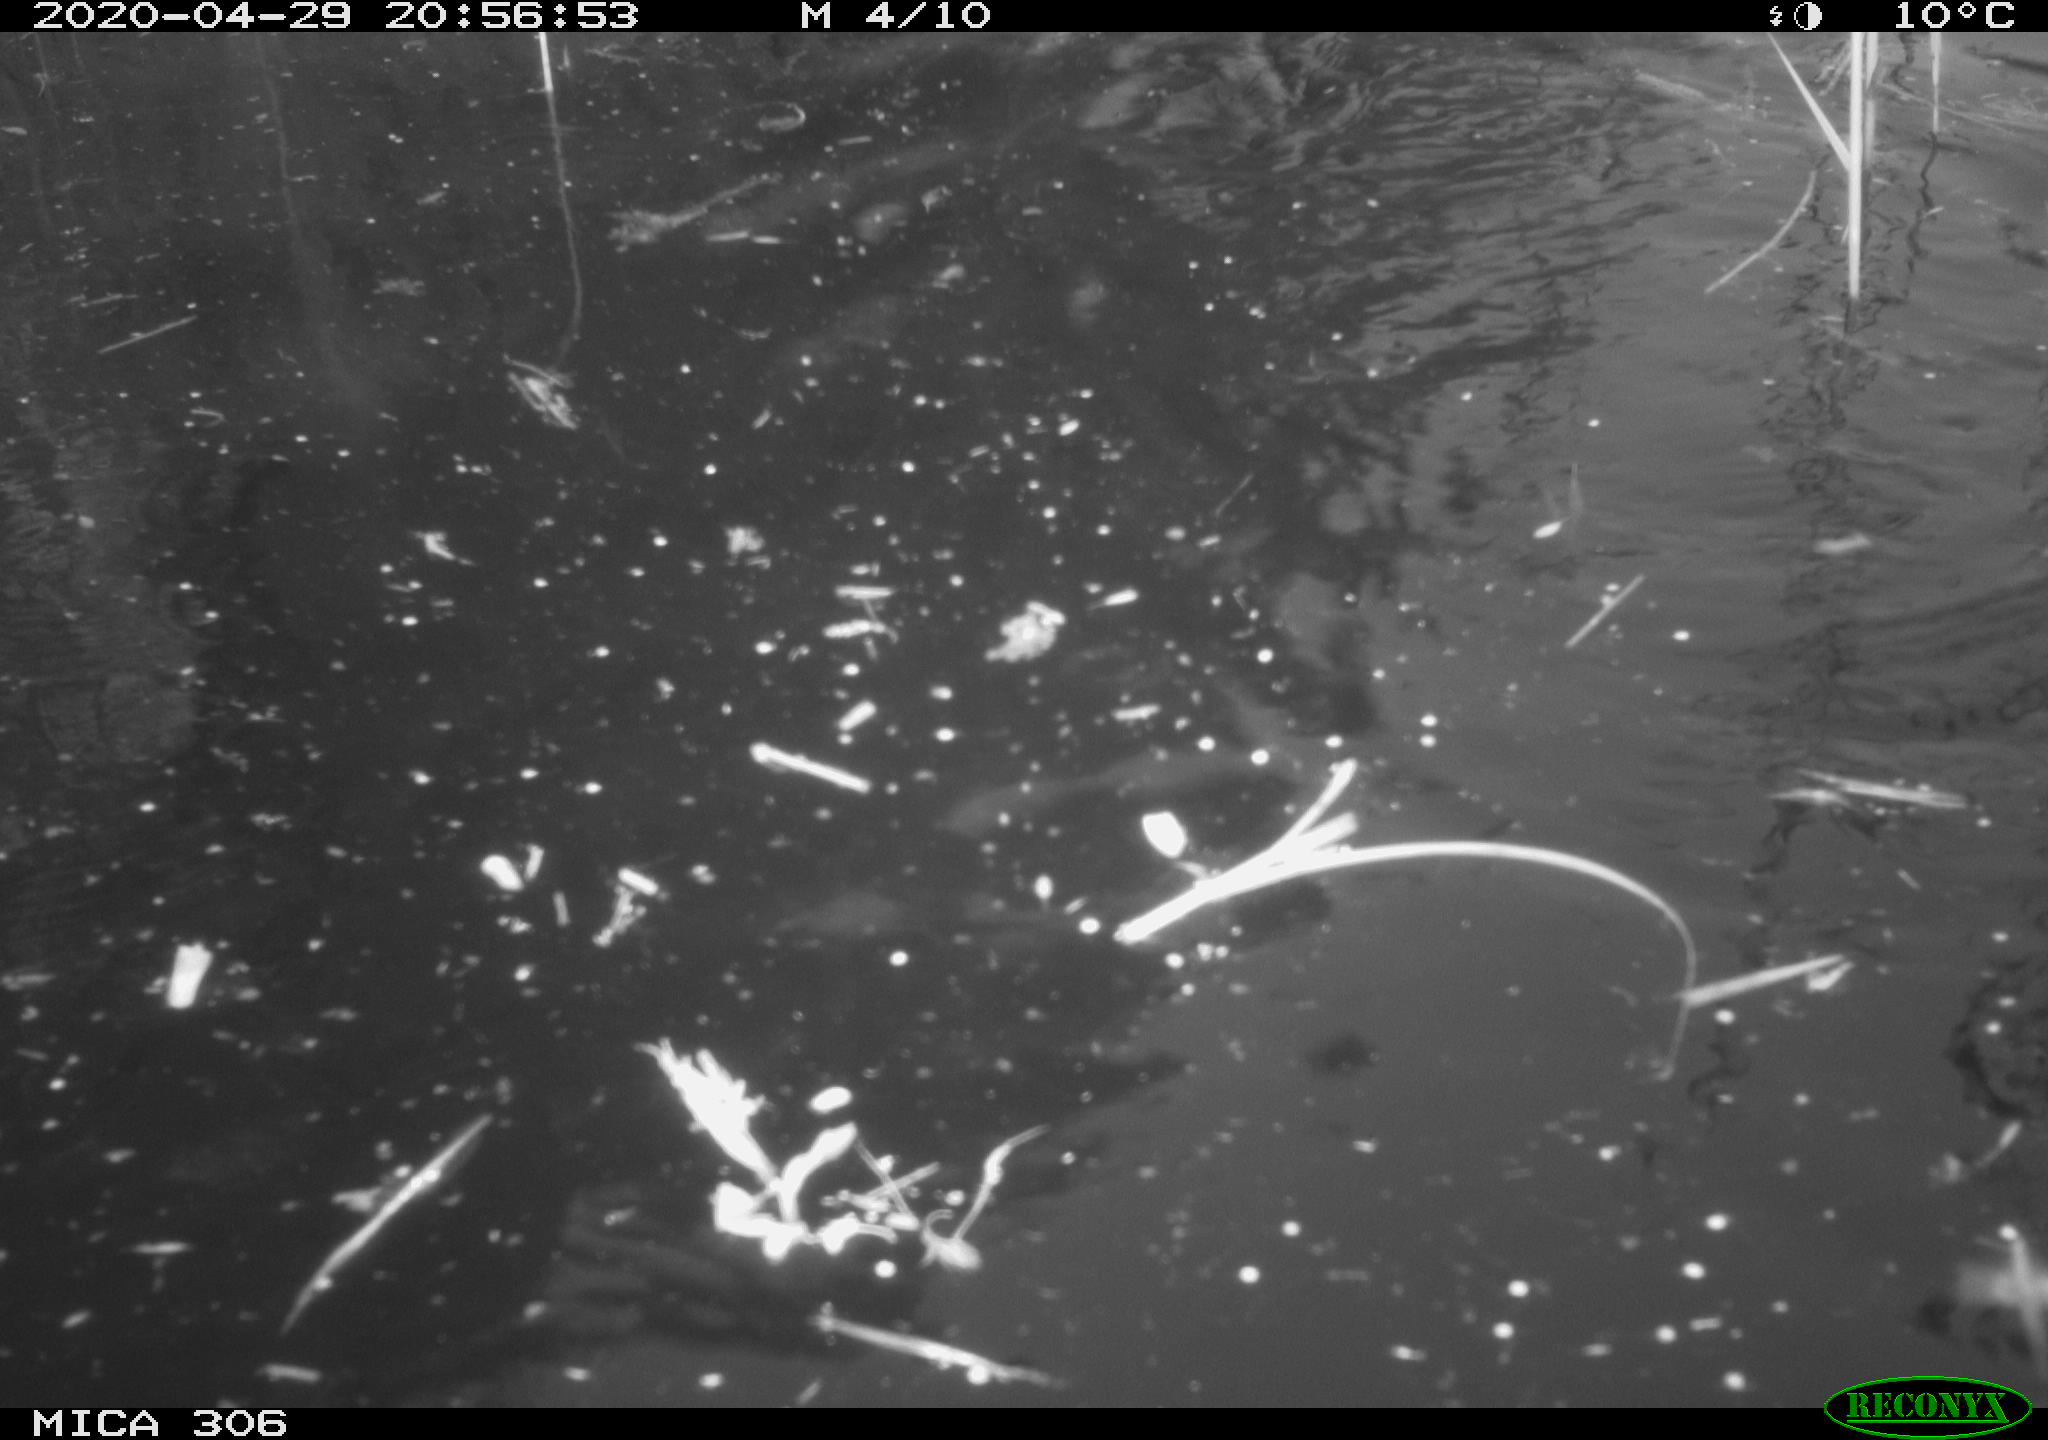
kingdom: Animalia
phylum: Chordata
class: Mammalia
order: Rodentia
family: Cricetidae
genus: Ondatra
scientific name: Ondatra zibethicus
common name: Muskrat
